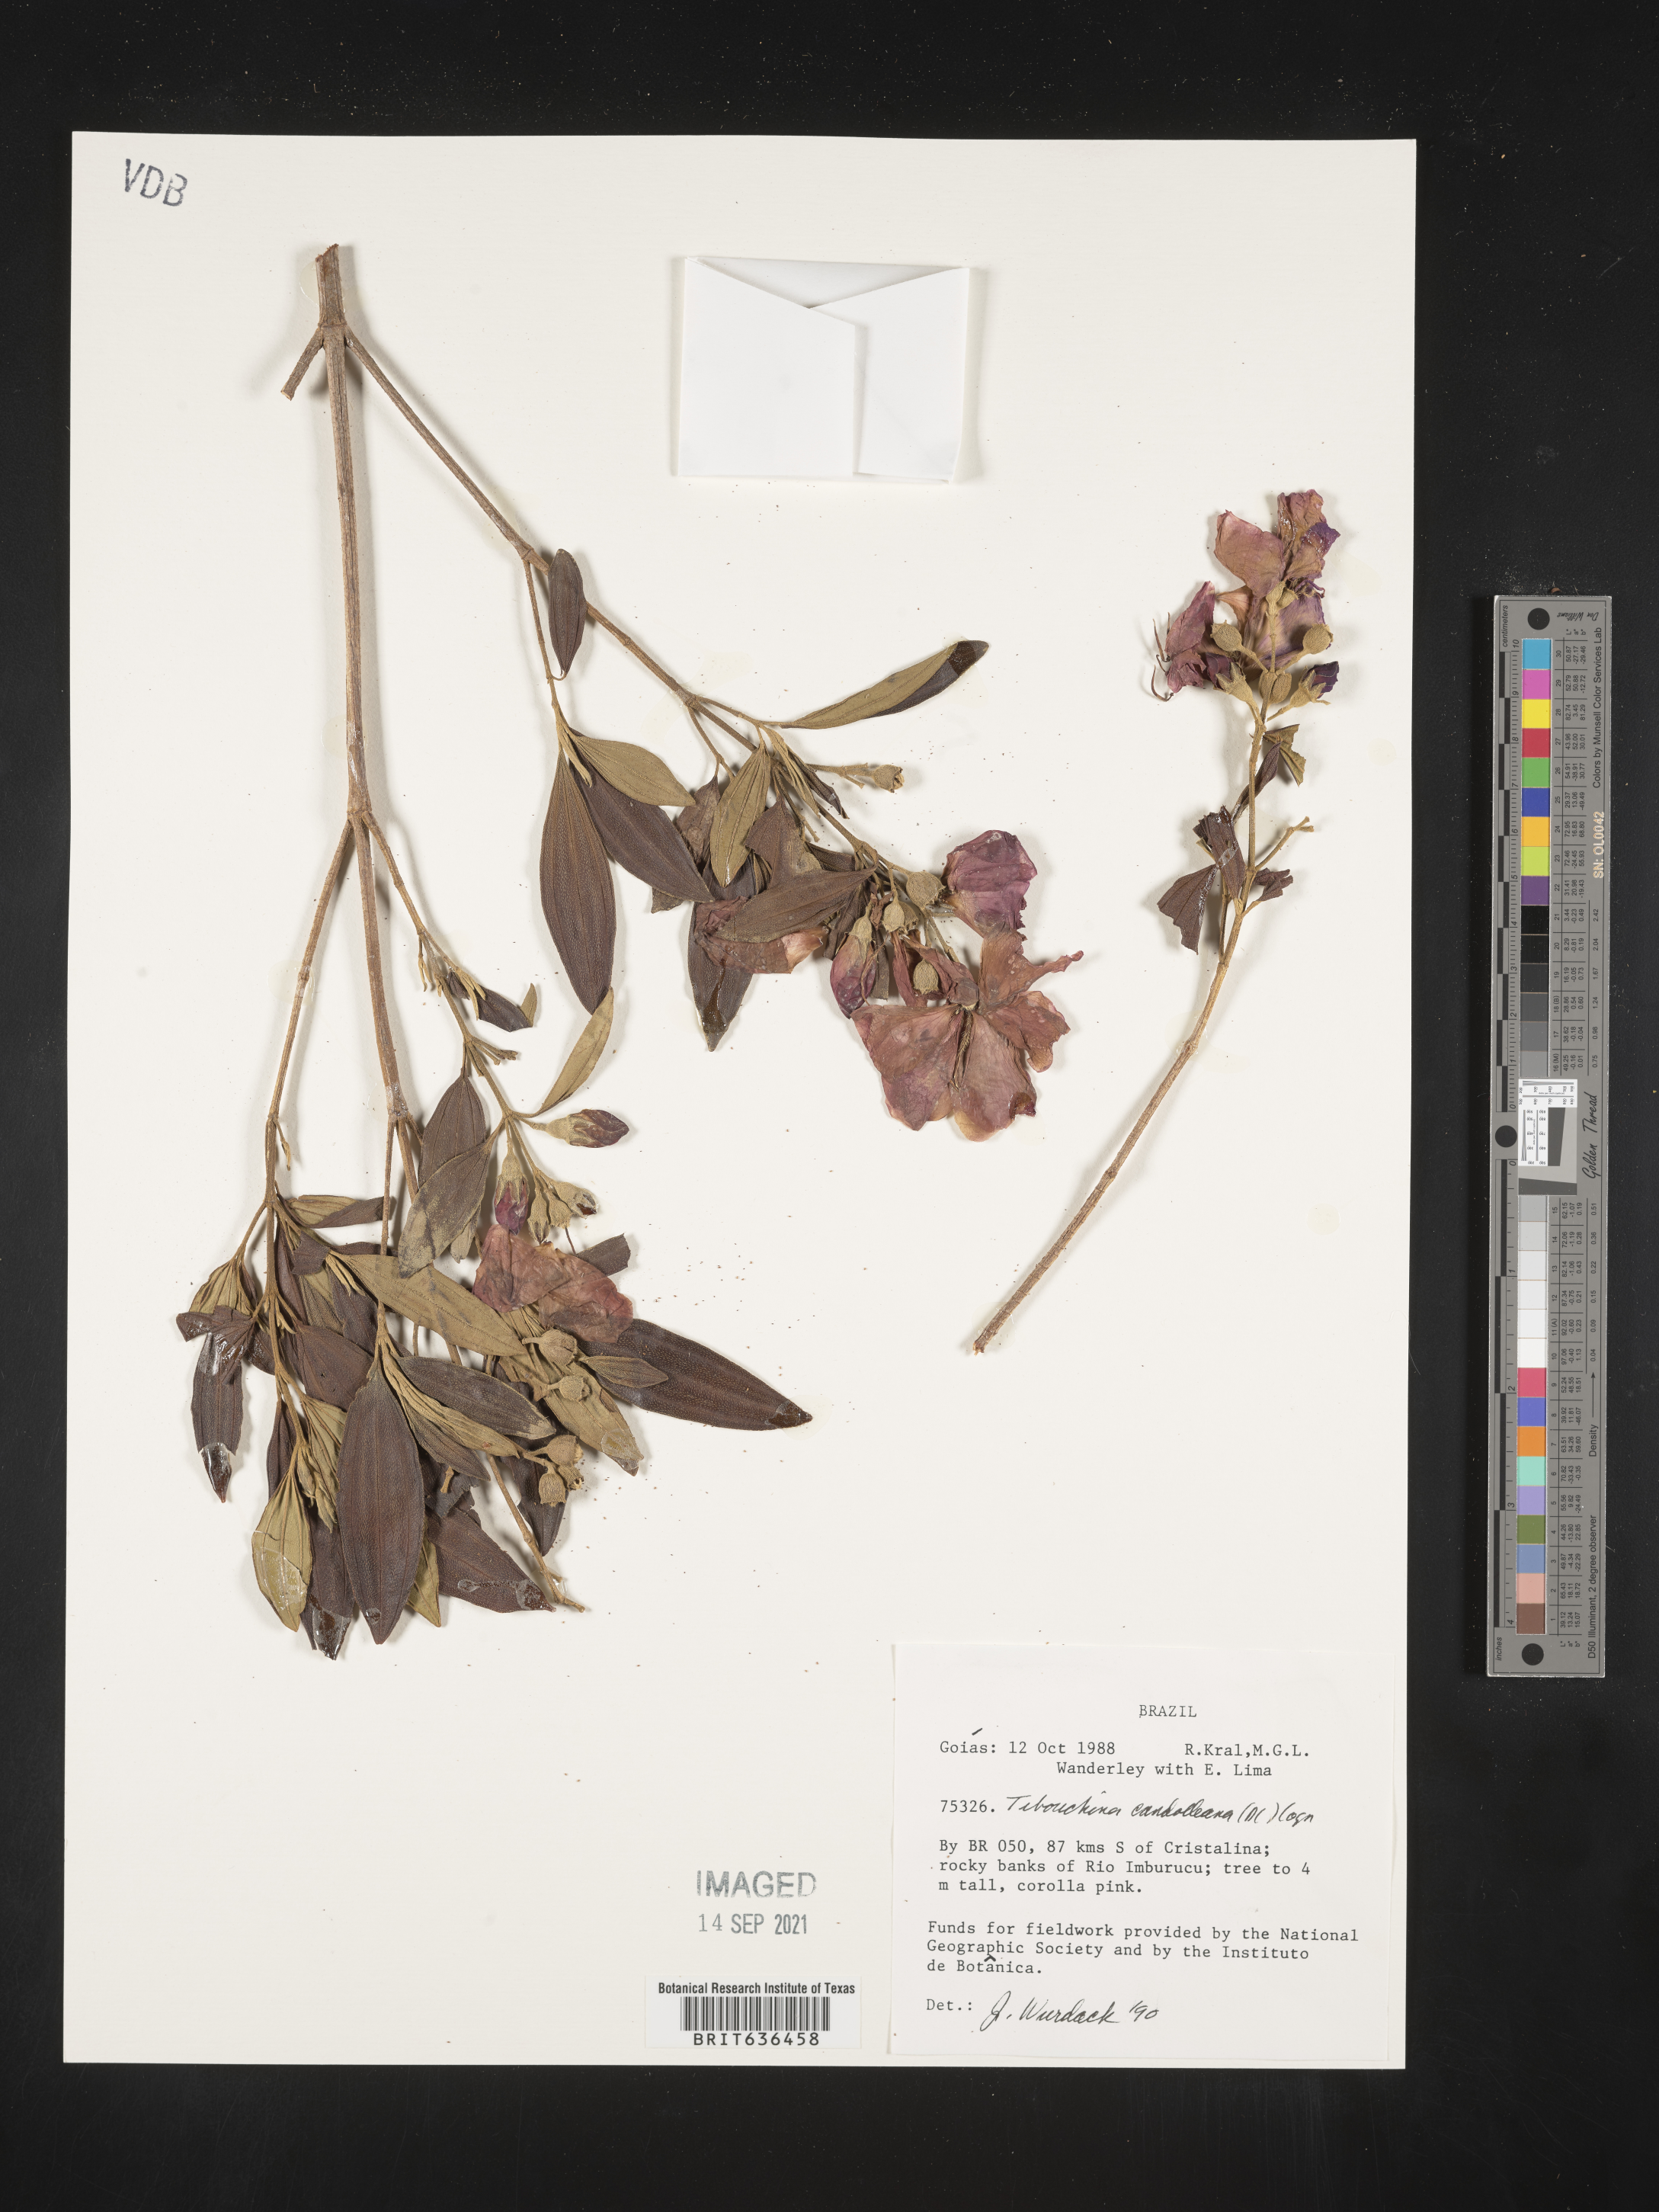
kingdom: Plantae
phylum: Tracheophyta
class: Magnoliopsida
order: Myrtales
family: Melastomataceae
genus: Tibouchina
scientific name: Tibouchina
